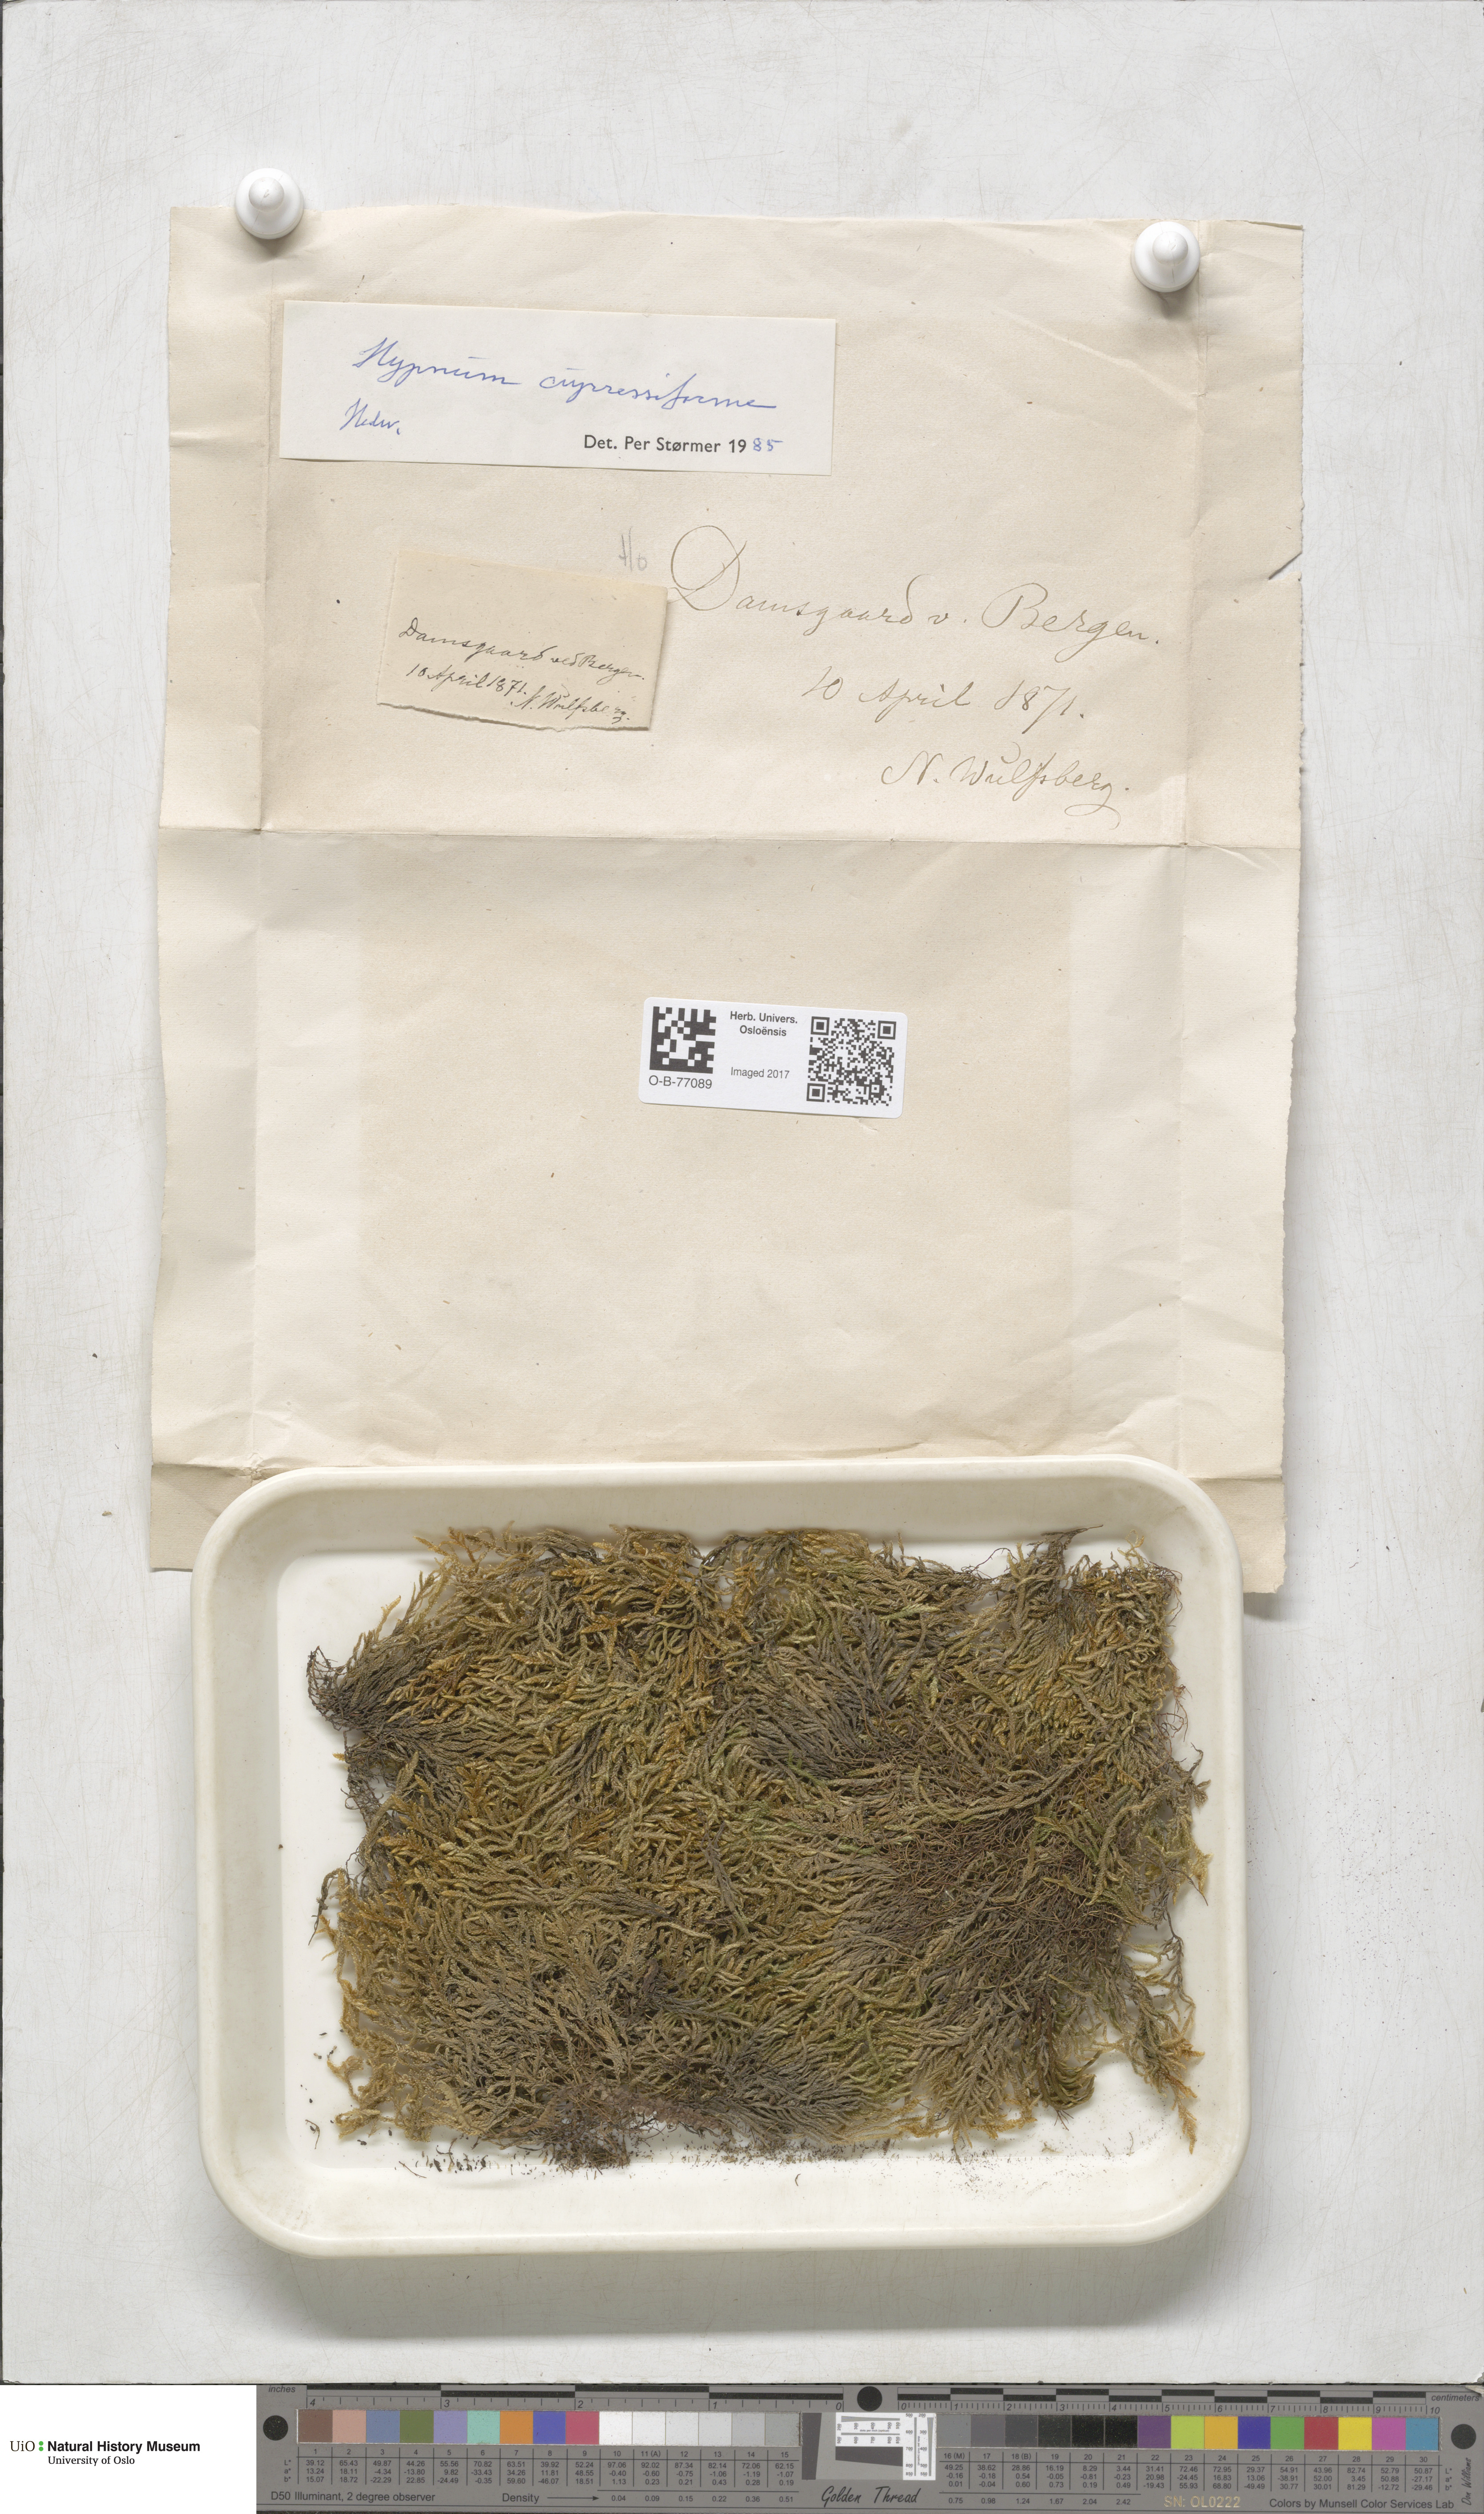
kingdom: Plantae
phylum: Bryophyta
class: Bryopsida
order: Hypnales
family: Hypnaceae
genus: Hypnum
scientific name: Hypnum cupressiforme
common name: Cypress-leaved plait-moss
